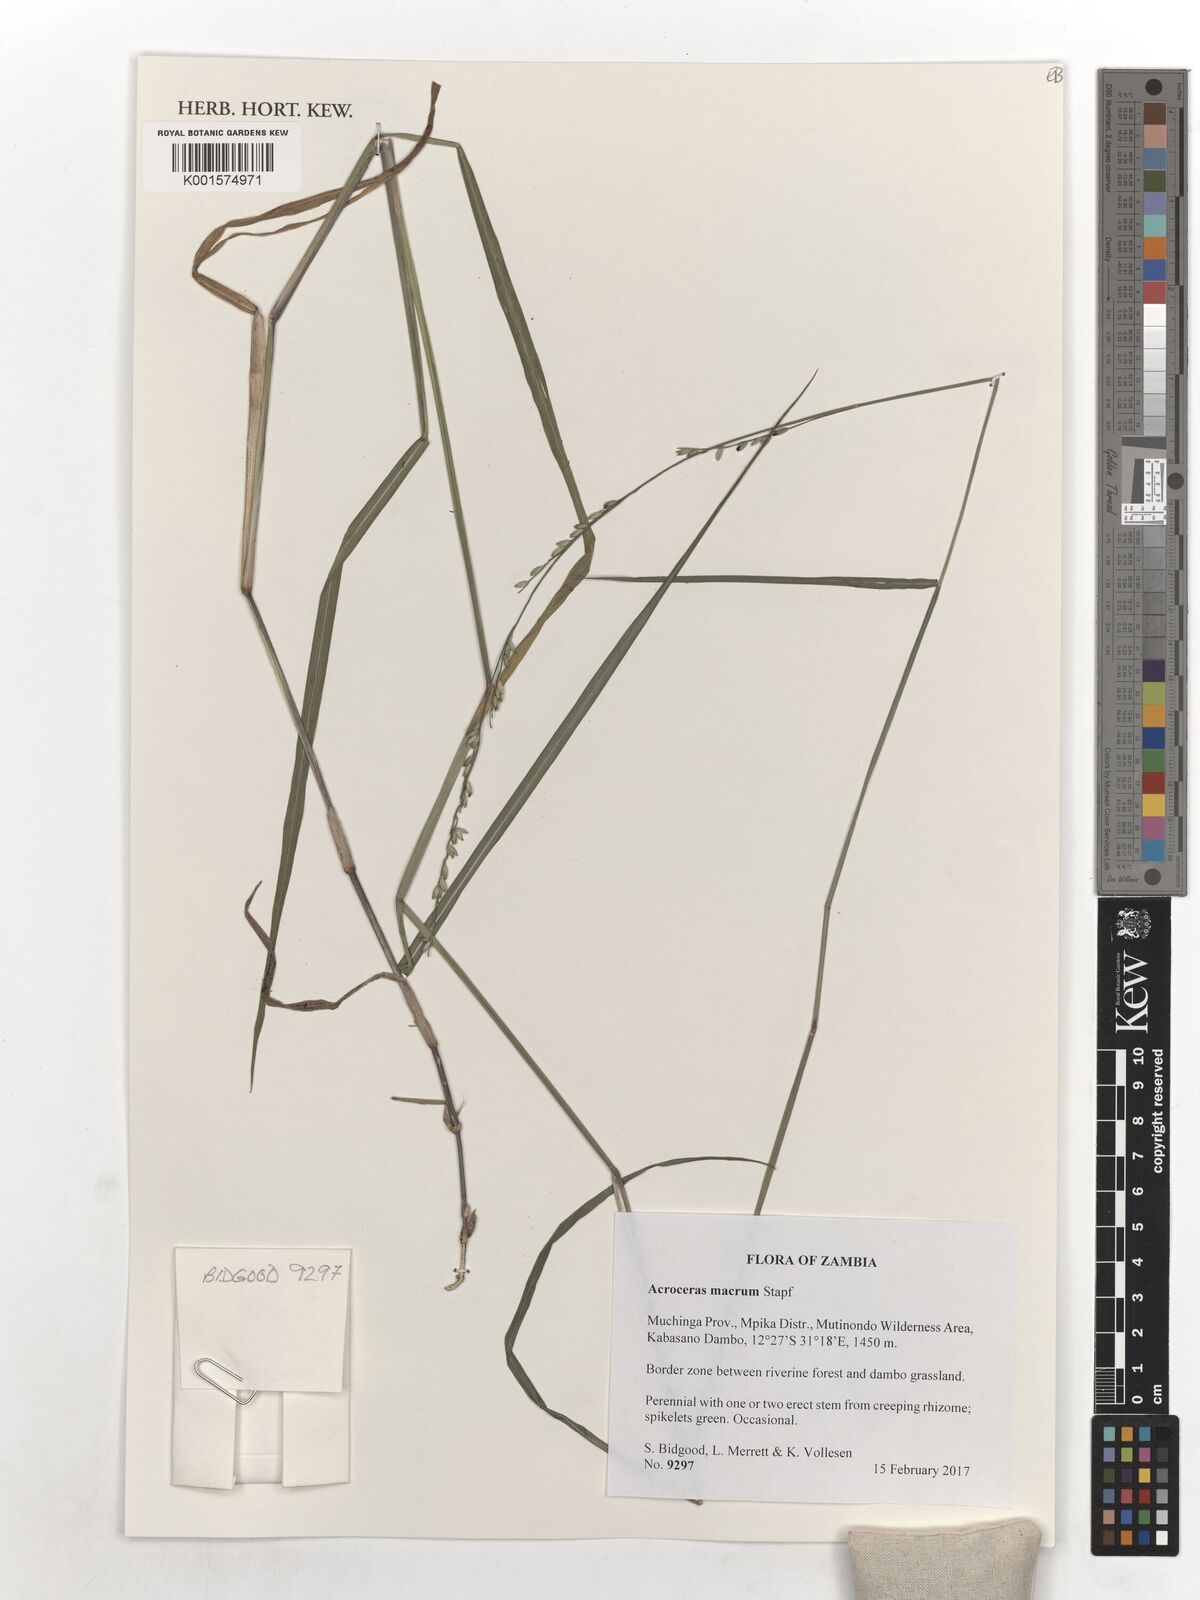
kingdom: Plantae
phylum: Tracheophyta
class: Liliopsida
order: Poales
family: Poaceae
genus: Acroceras
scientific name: Acroceras macrum
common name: Nyl grass
